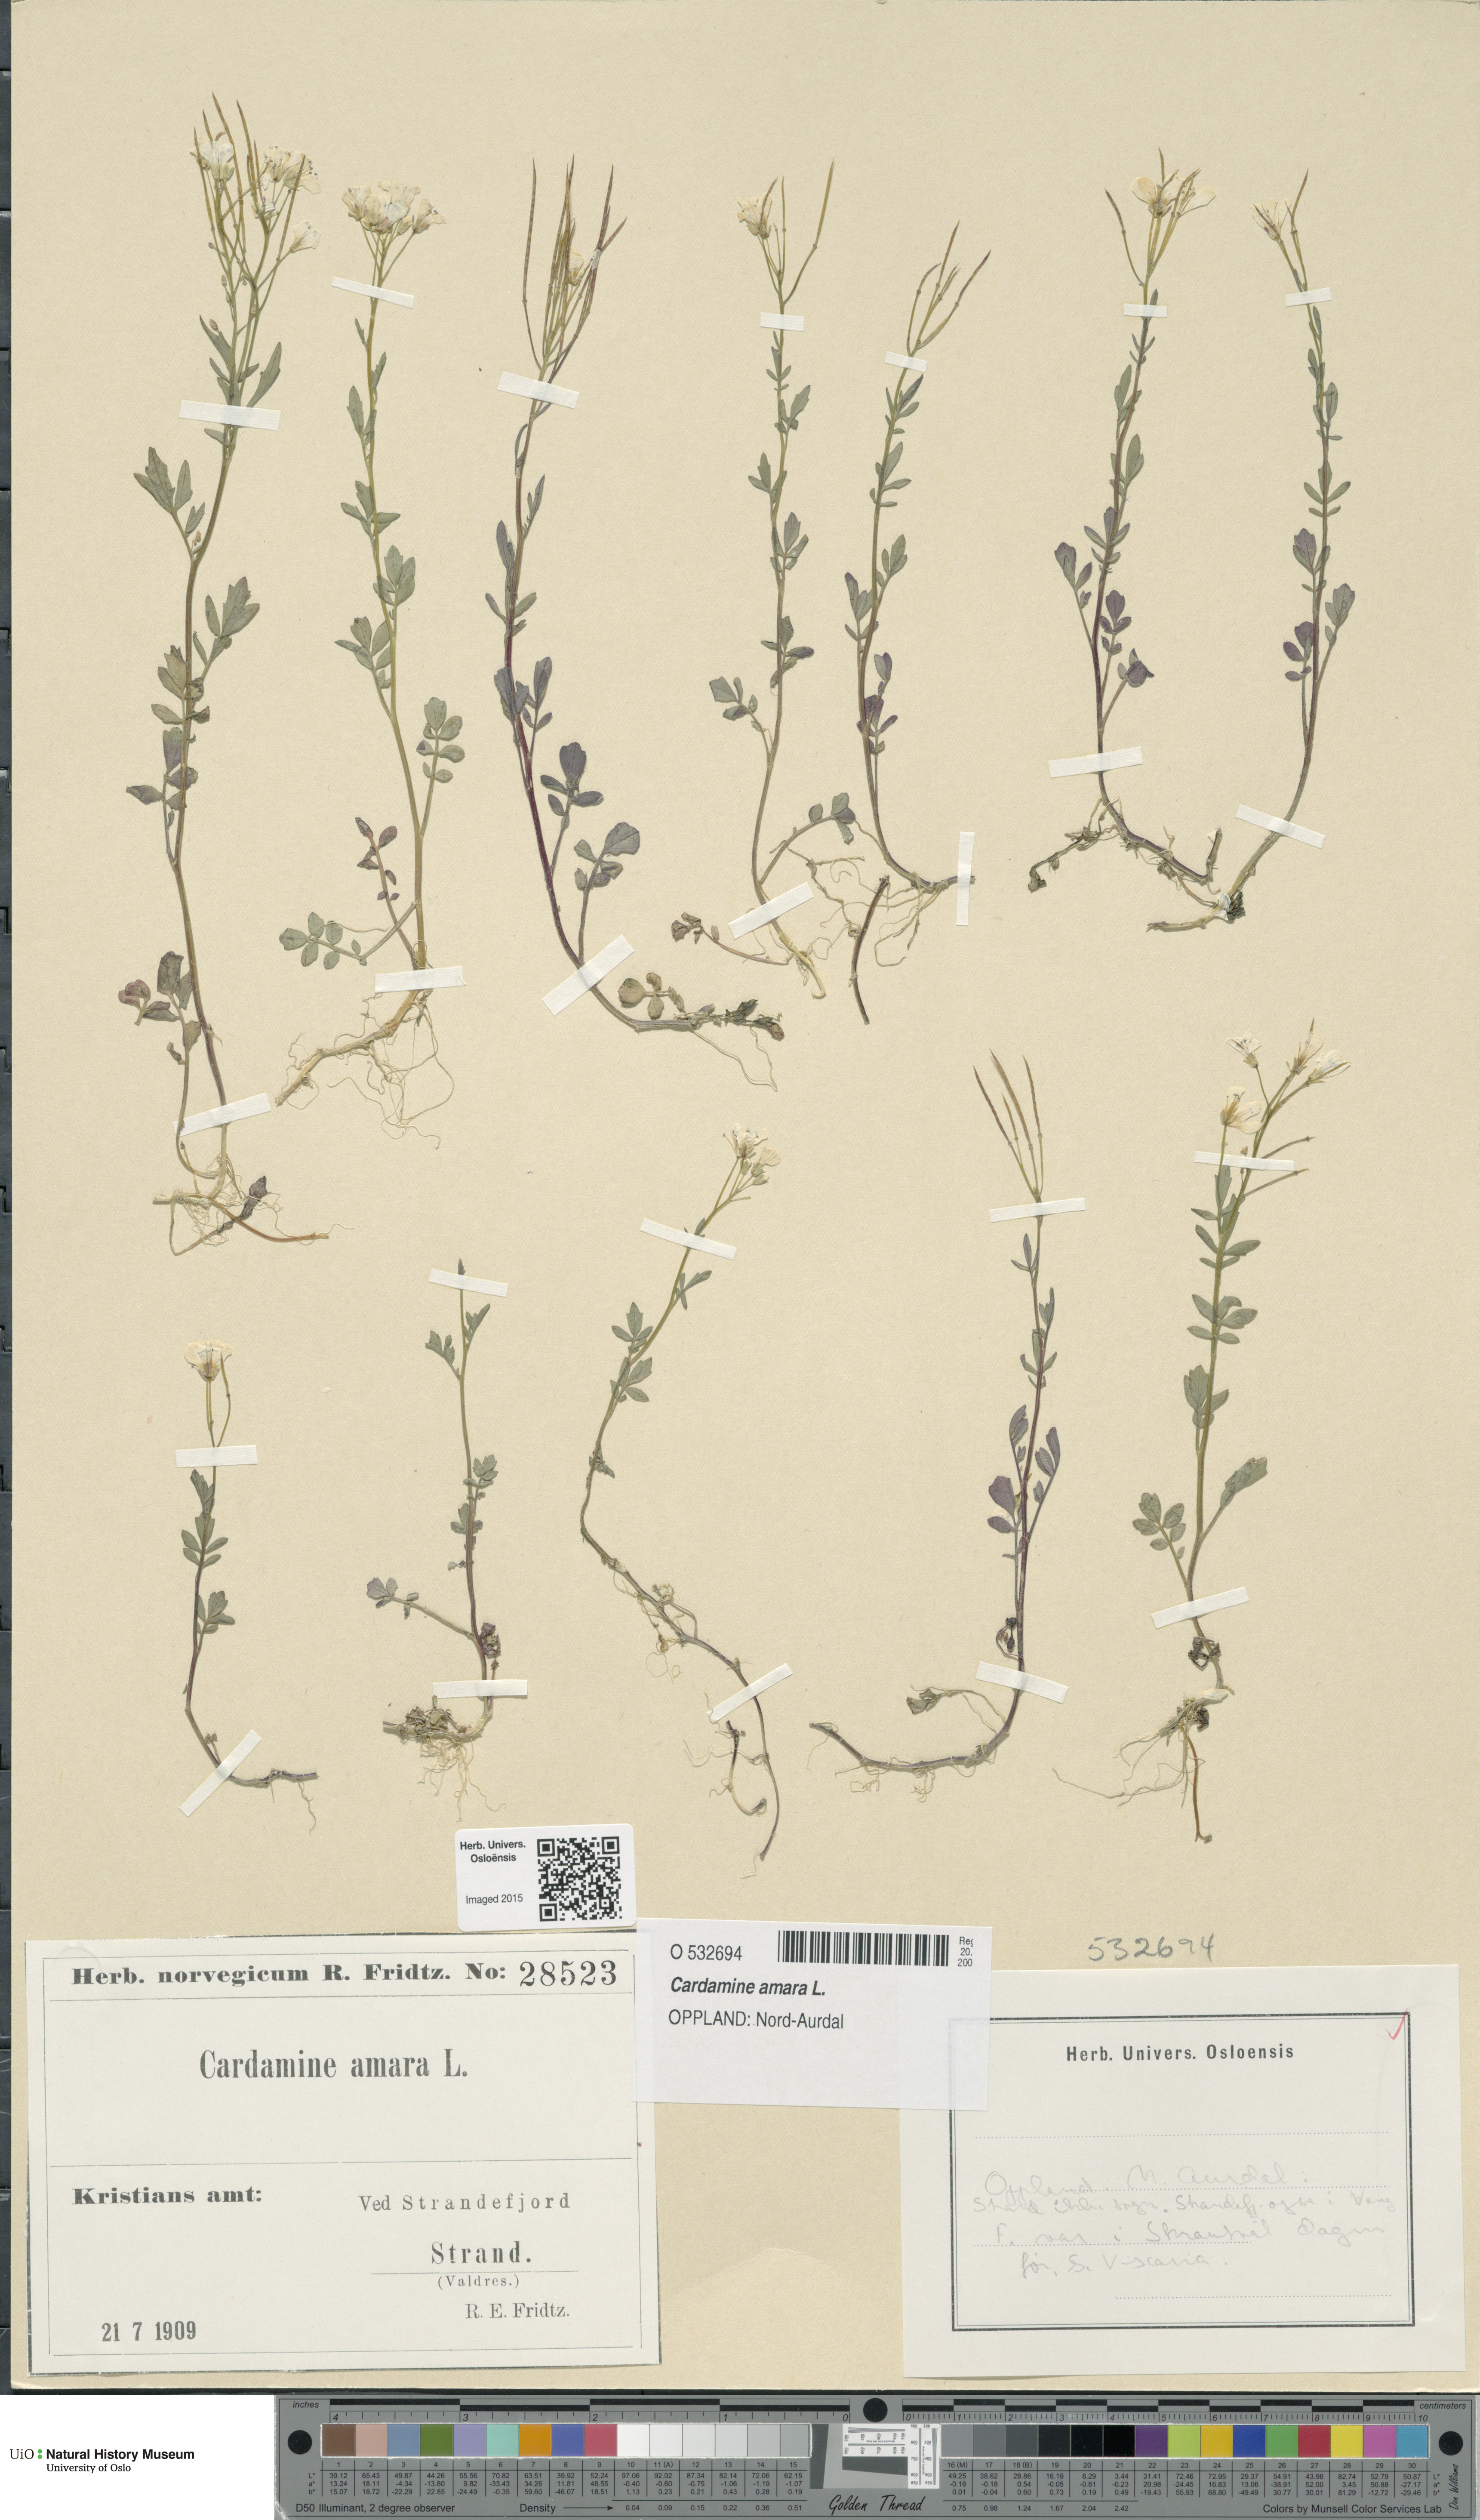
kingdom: Plantae
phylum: Tracheophyta
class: Magnoliopsida
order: Brassicales
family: Brassicaceae
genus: Cardamine
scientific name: Cardamine amara
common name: Large bitter-cress
